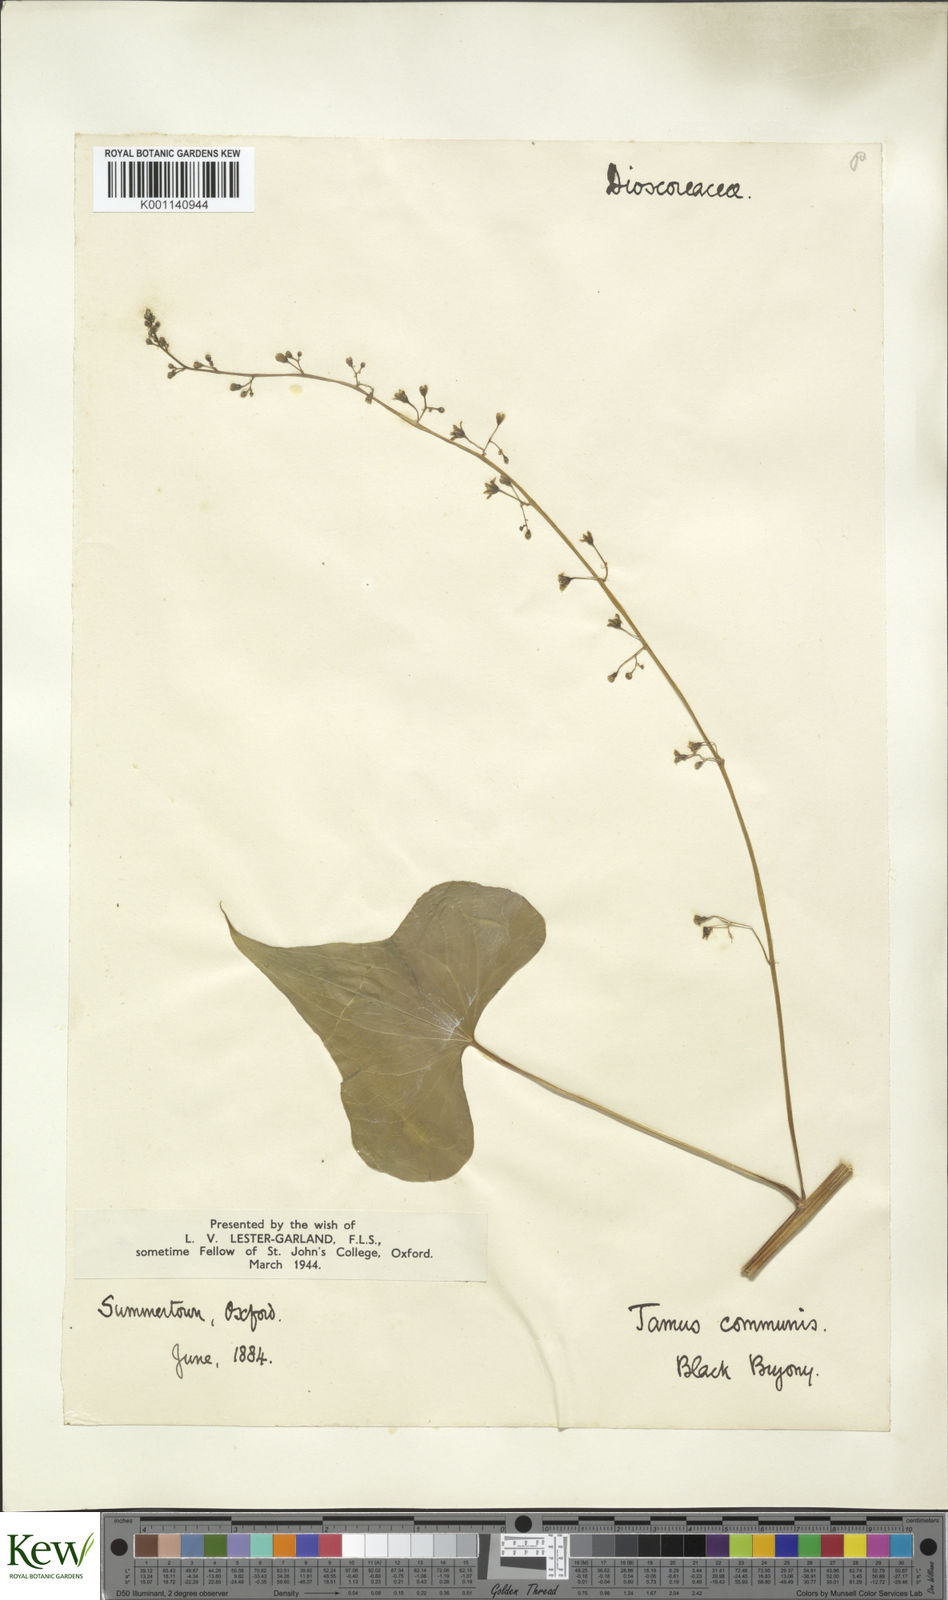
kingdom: Plantae
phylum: Tracheophyta
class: Liliopsida
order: Dioscoreales
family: Dioscoreaceae
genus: Dioscorea
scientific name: Dioscorea communis
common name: Black-bindweed
